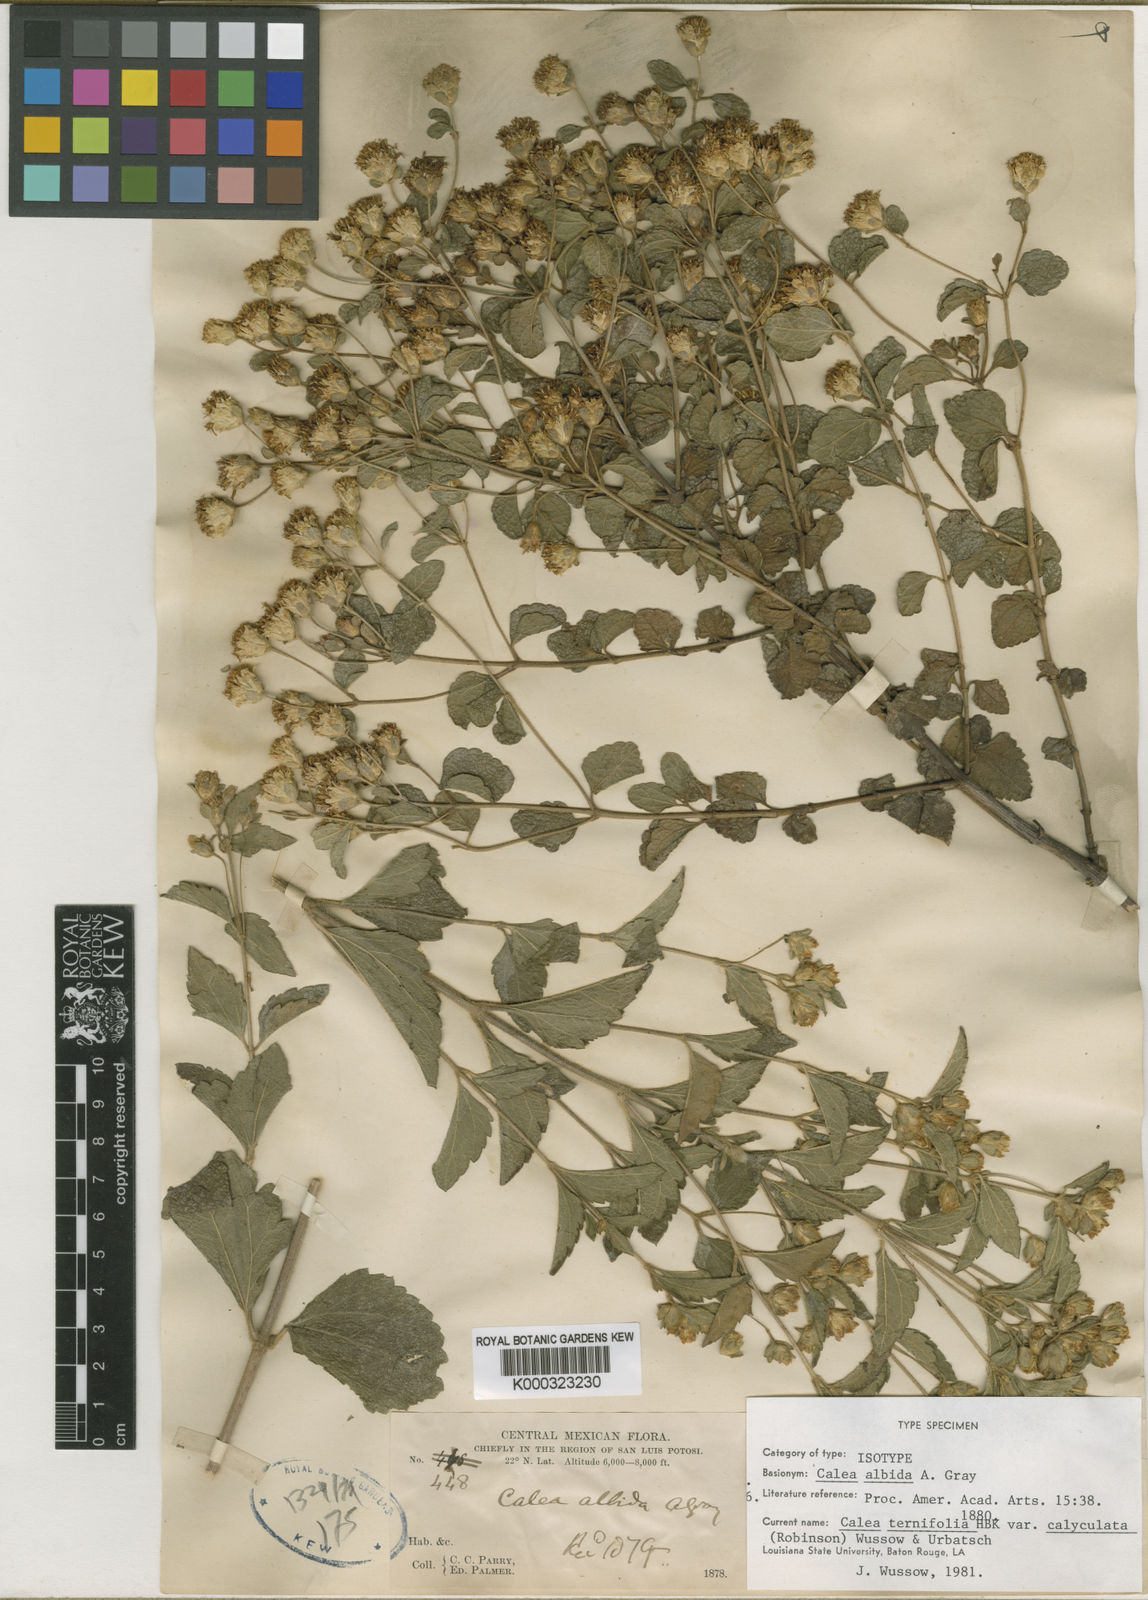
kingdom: Plantae
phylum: Tracheophyta
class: Magnoliopsida
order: Asterales
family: Asteraceae
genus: Calea
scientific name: Calea ternifolia
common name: Mexican calea
